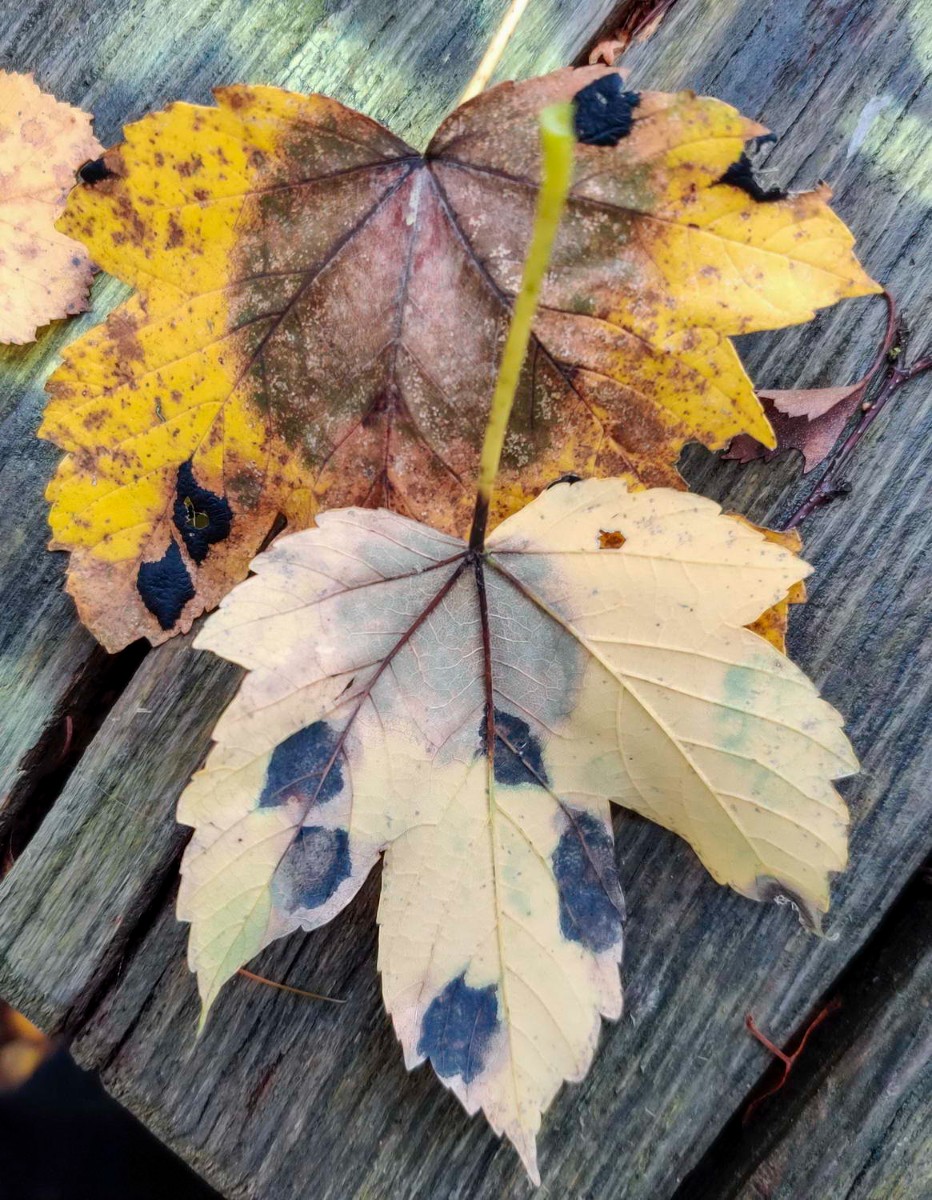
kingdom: Fungi
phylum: Ascomycota
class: Sordariomycetes
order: Diaporthales
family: Gnomoniaceae
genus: Pleuroceras
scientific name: Pleuroceras pseudoplatani
